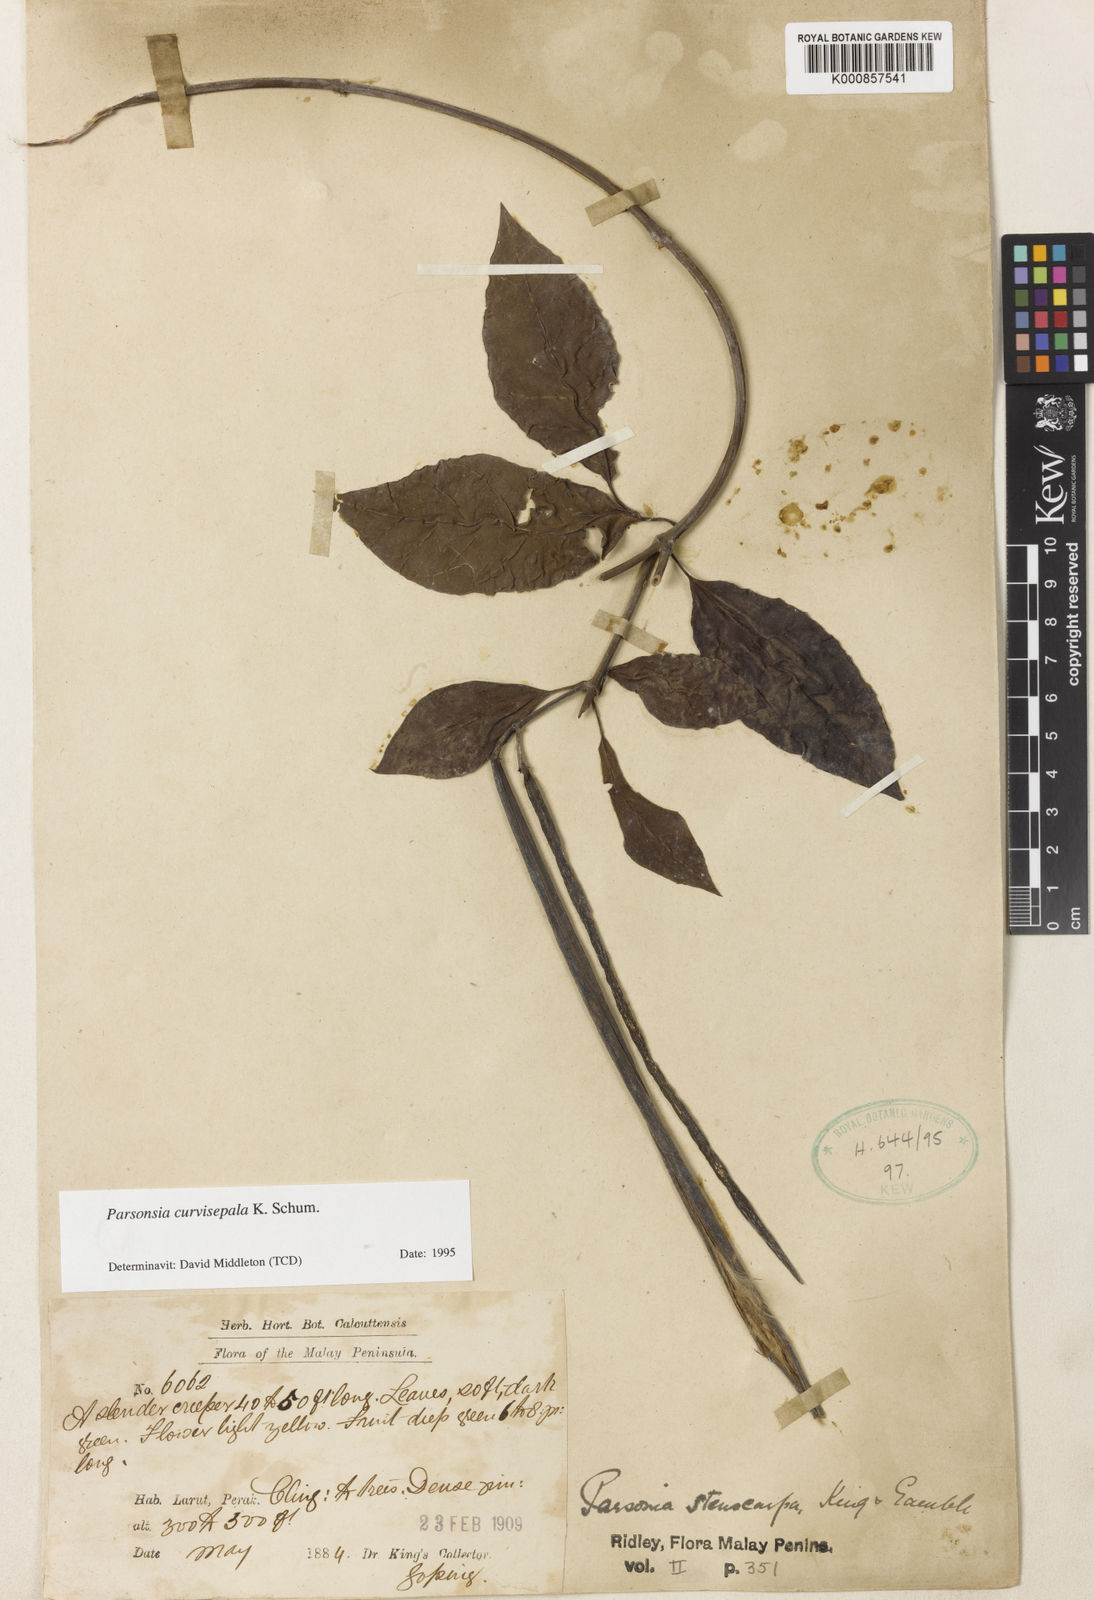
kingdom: Plantae
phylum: Tracheophyta
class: Magnoliopsida
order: Gentianales
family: Apocynaceae
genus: Parsonsia
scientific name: Parsonsia curvisepala
